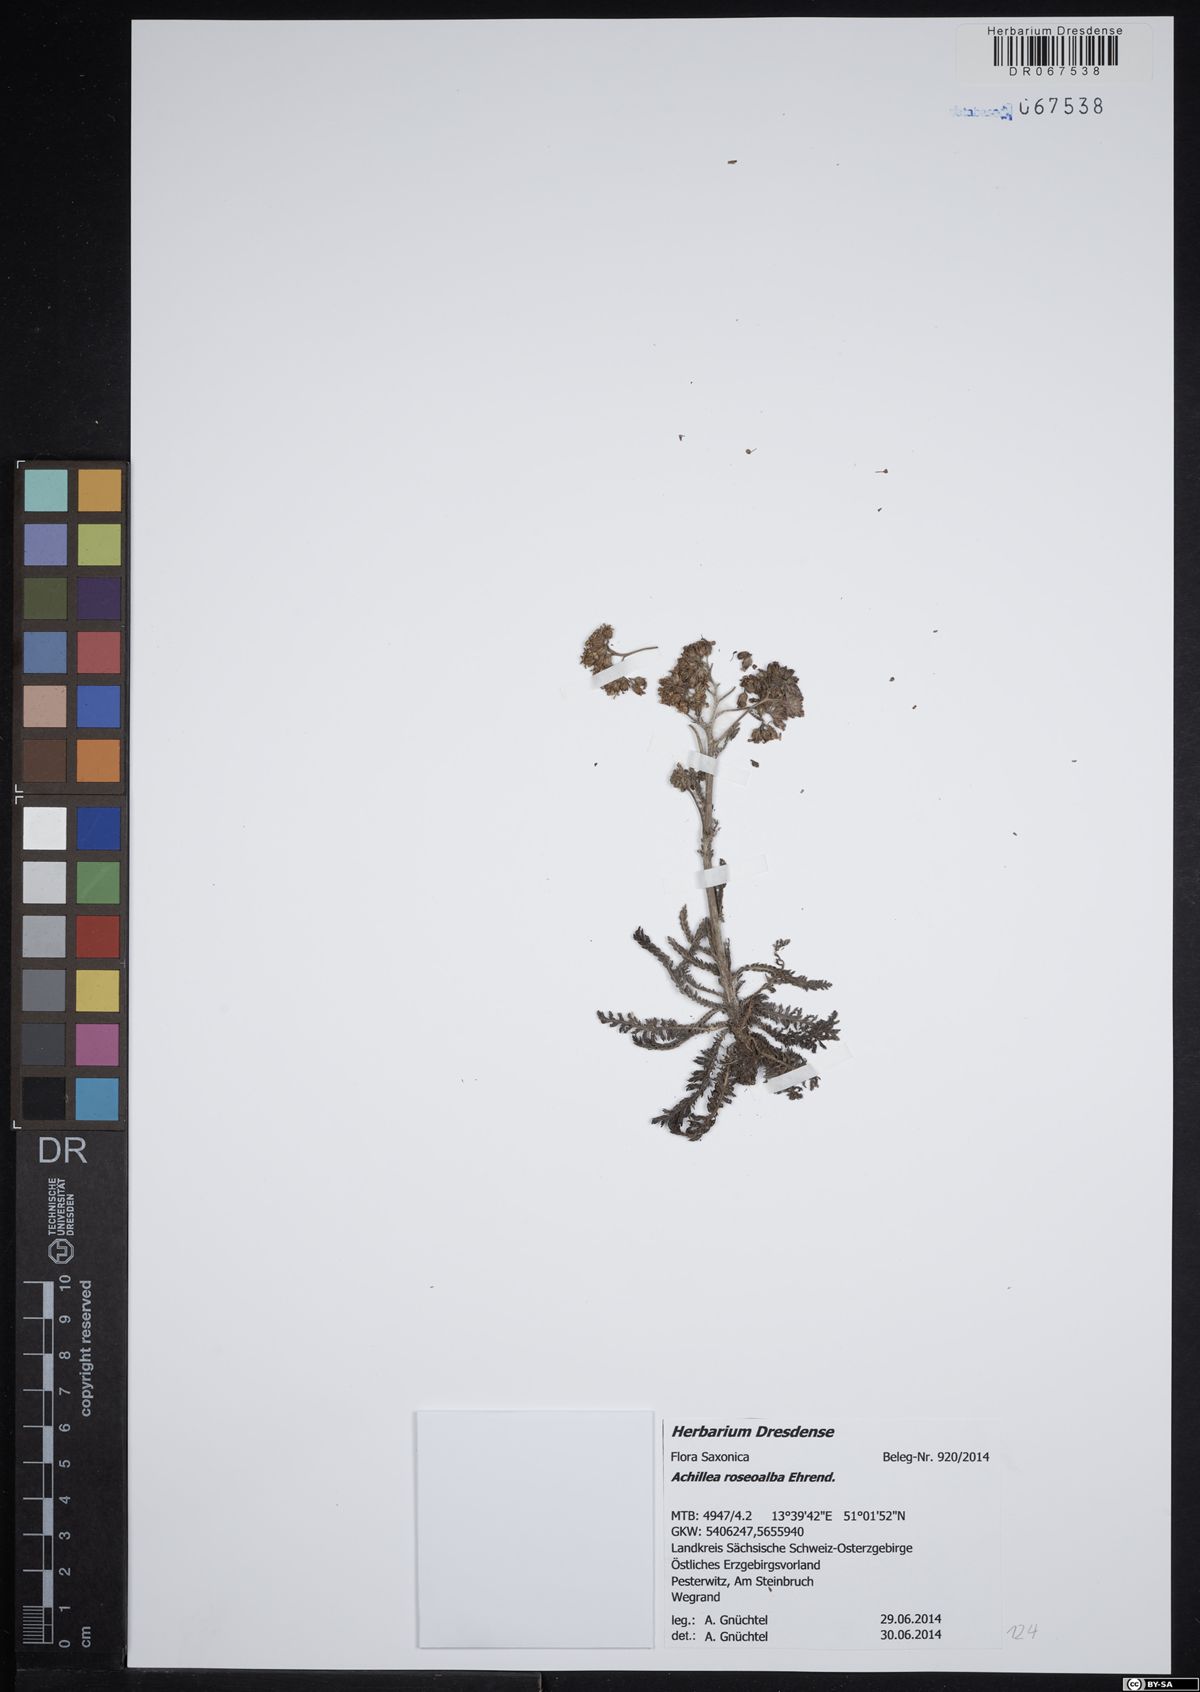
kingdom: Plantae
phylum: Tracheophyta
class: Magnoliopsida
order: Asterales
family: Asteraceae
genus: Achillea
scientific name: Achillea roseoalba
